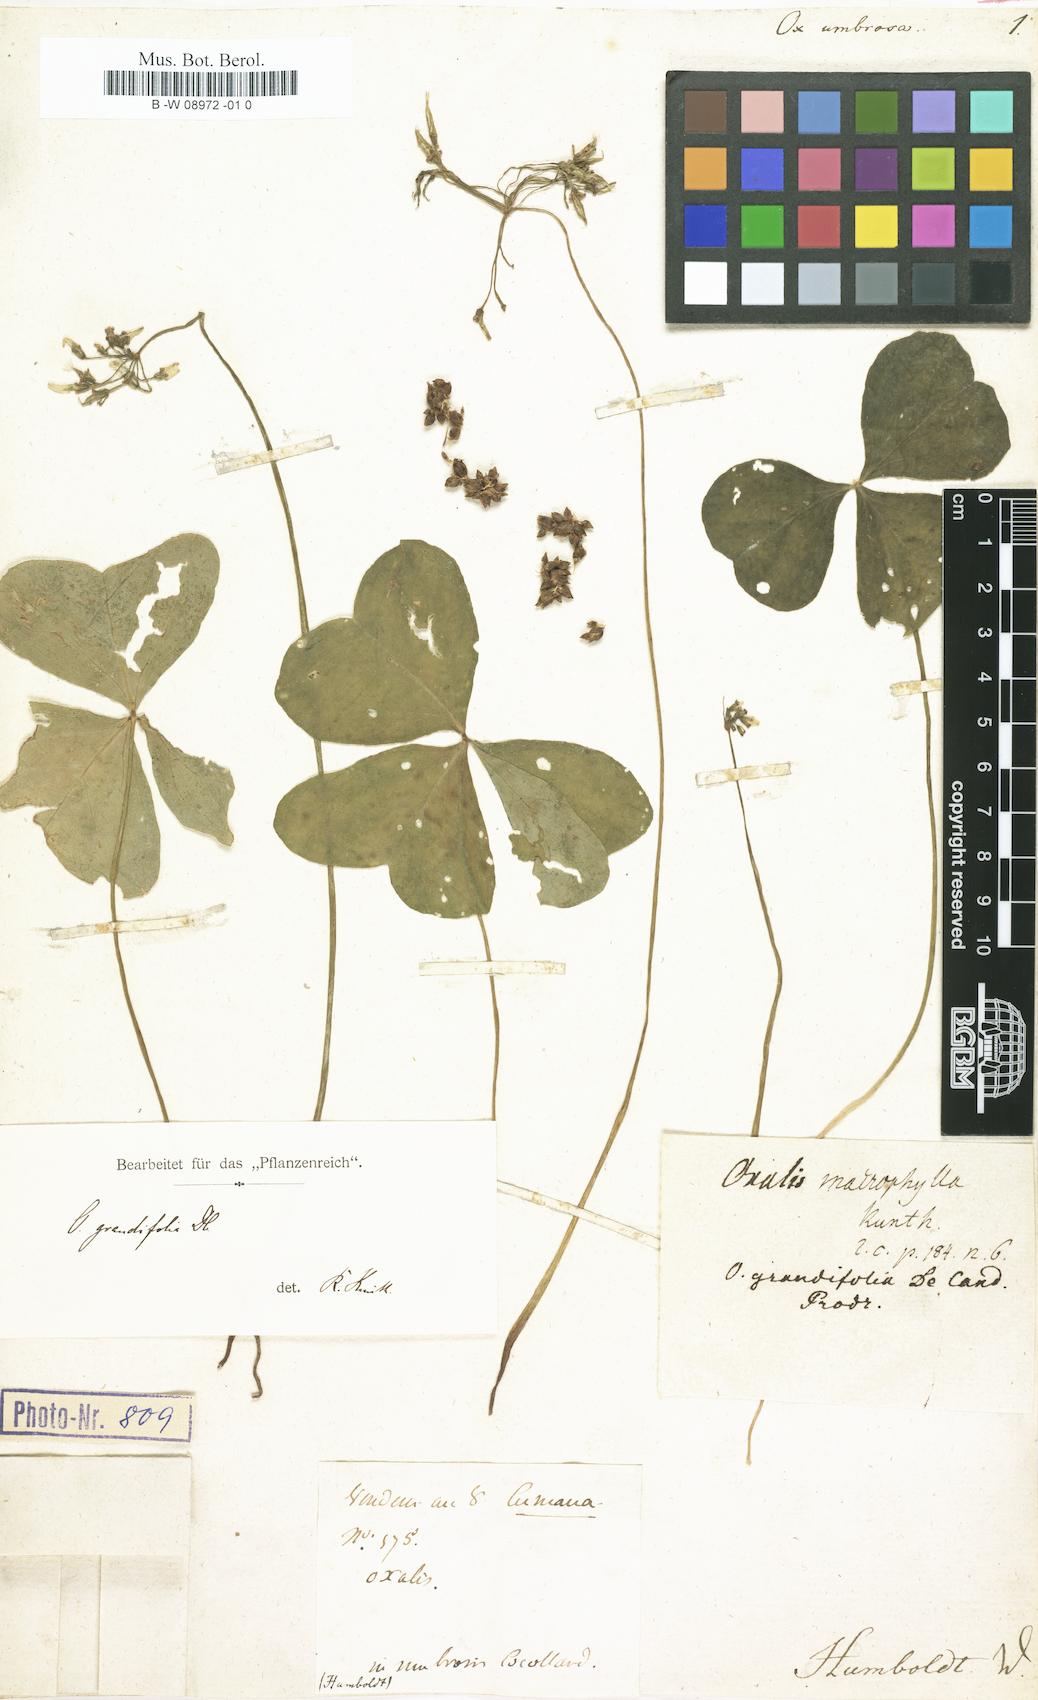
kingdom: Plantae
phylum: Tracheophyta
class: Magnoliopsida
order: Oxalidales
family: Oxalidaceae
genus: Oxalis
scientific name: Oxalis debilis
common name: Large-flowered pink-sorrel
